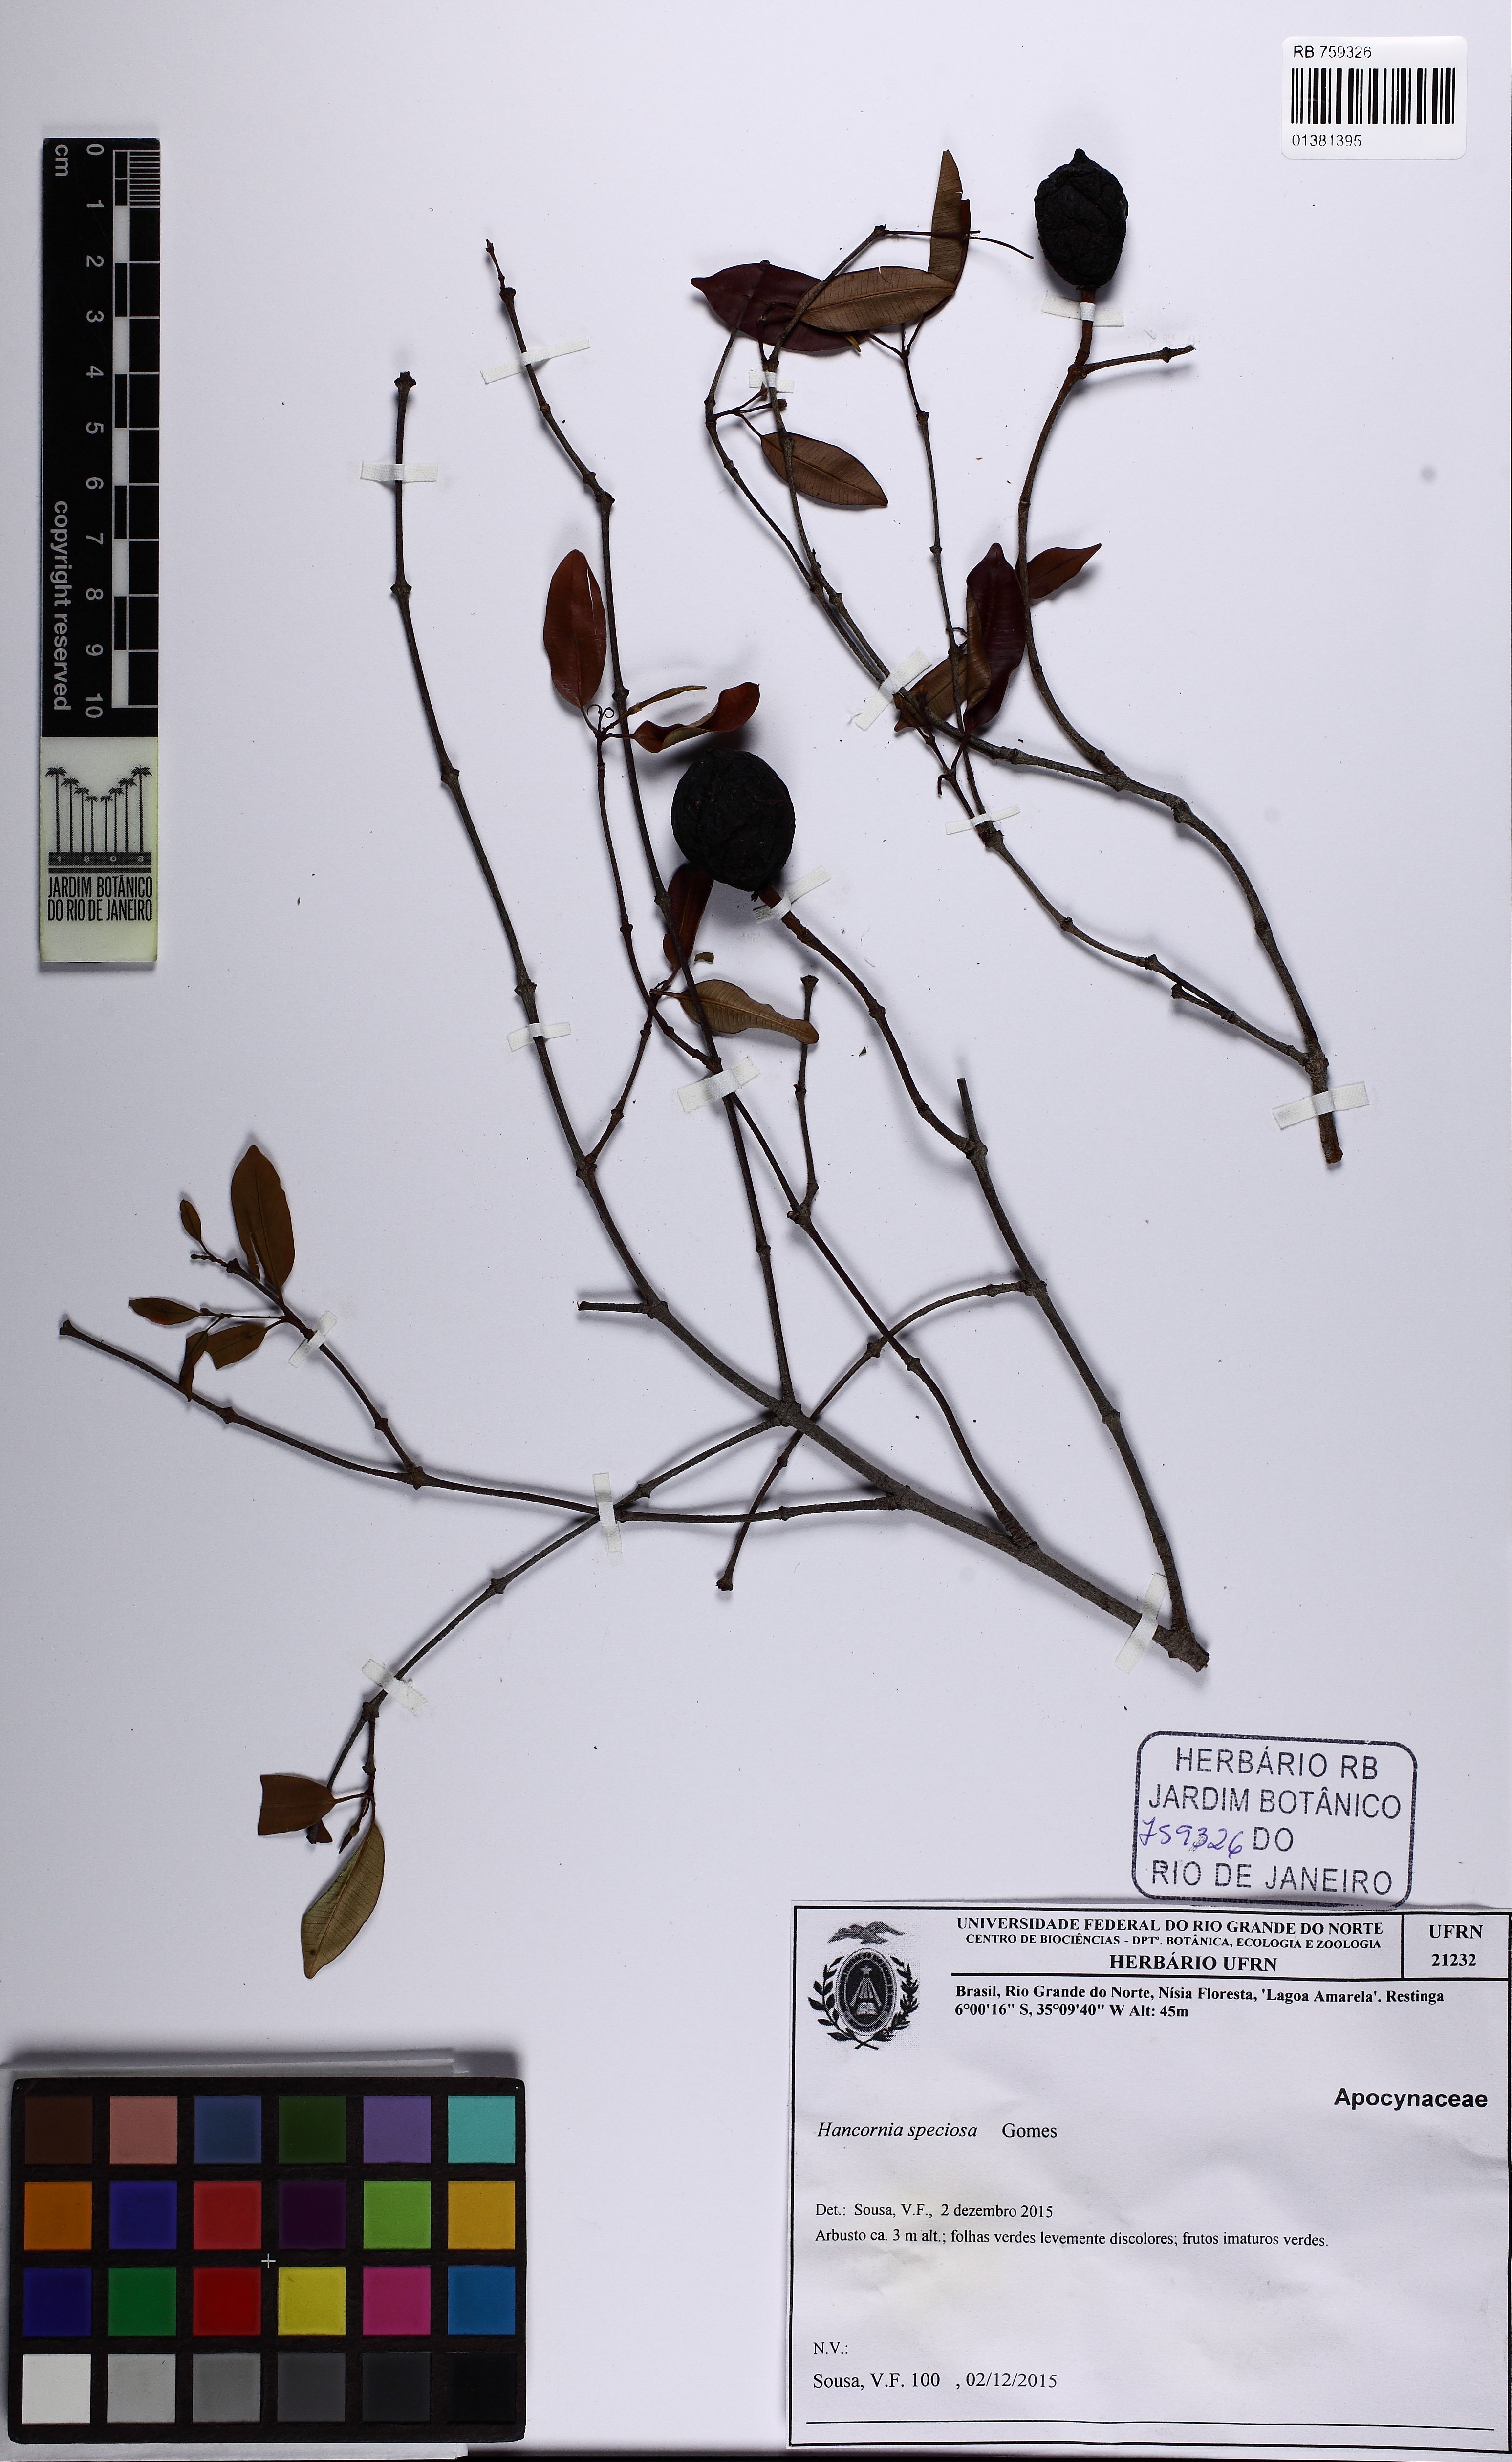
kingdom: Plantae
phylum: Tracheophyta
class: Magnoliopsida
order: Gentianales
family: Apocynaceae
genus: Hancornia
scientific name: Hancornia speciosa
